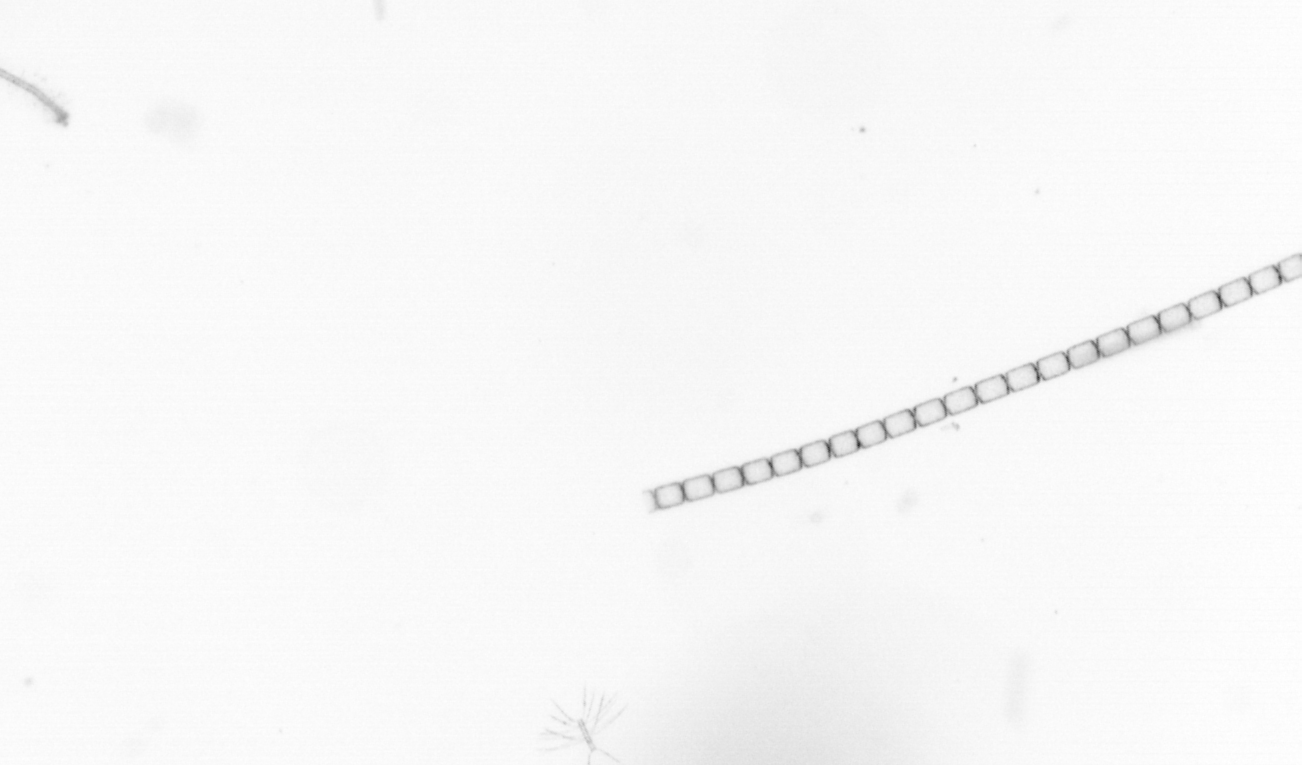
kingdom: Chromista
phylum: Ochrophyta
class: Bacillariophyceae
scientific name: Bacillariophyceae
